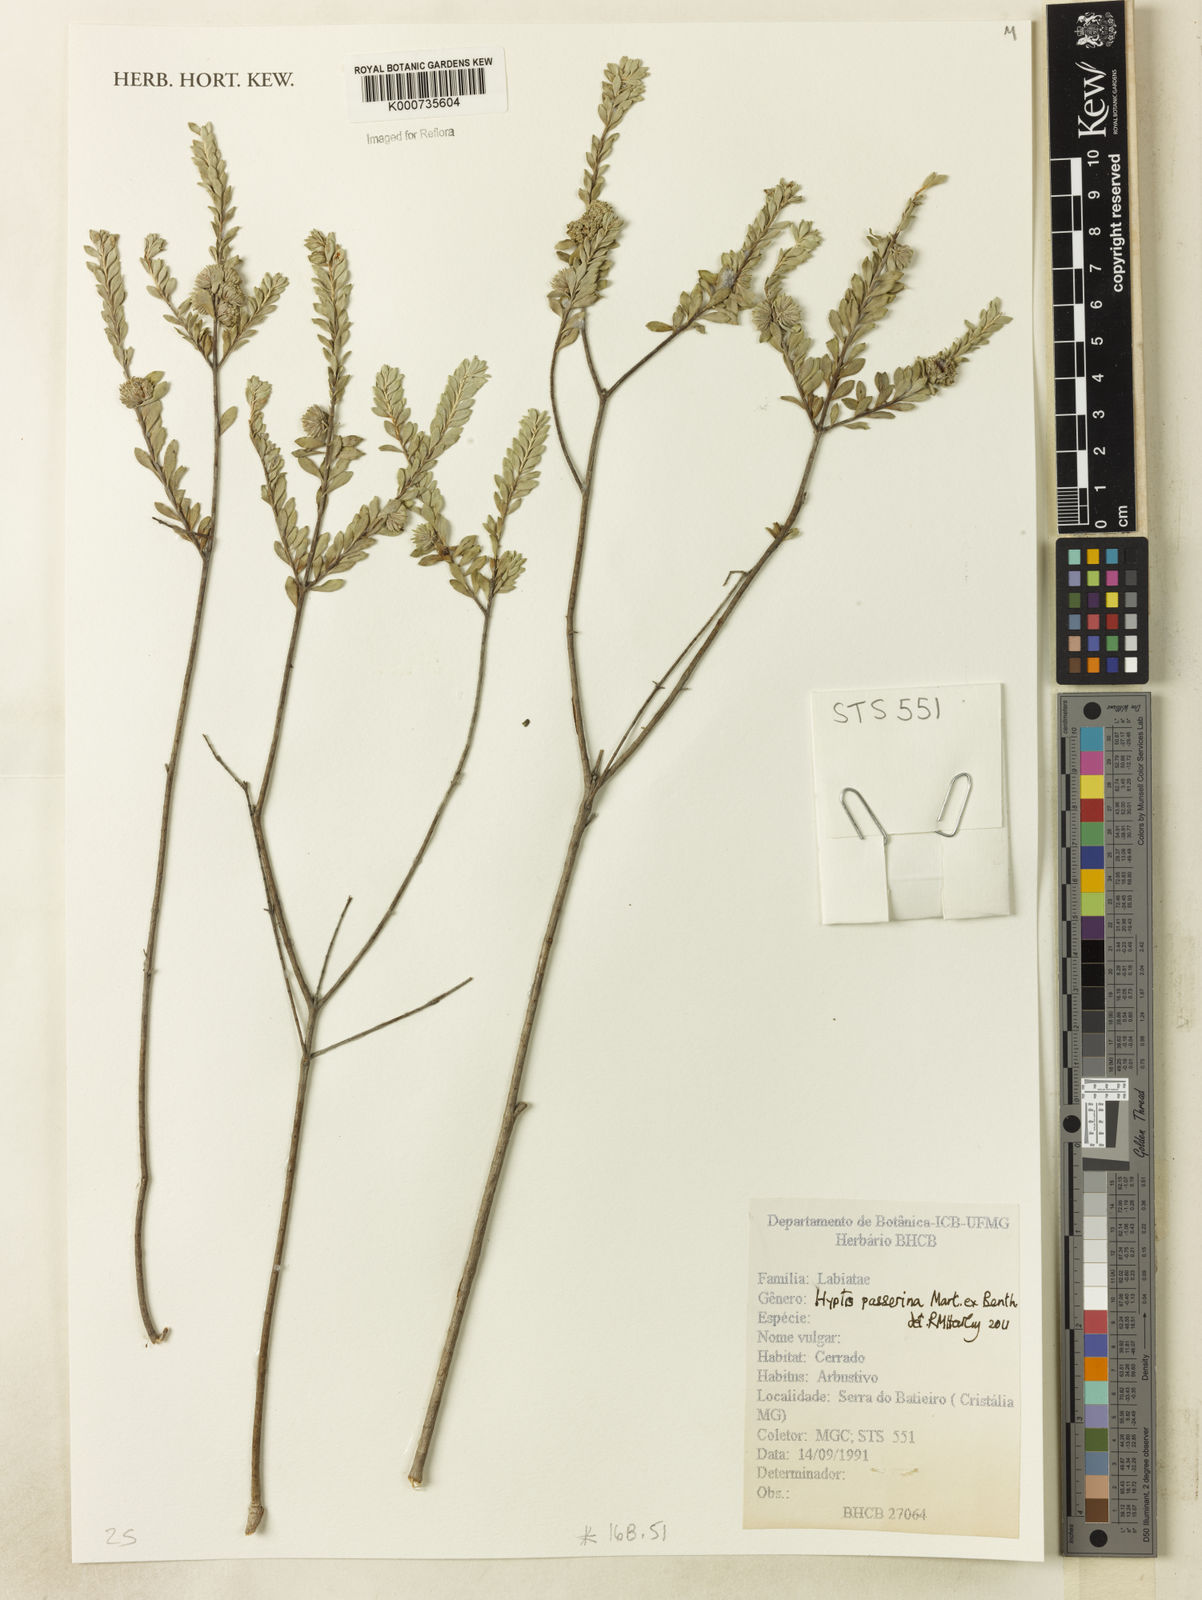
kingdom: Plantae
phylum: Tracheophyta
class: Magnoliopsida
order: Lamiales
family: Lamiaceae
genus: Hyptis
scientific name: Hyptis passerina
